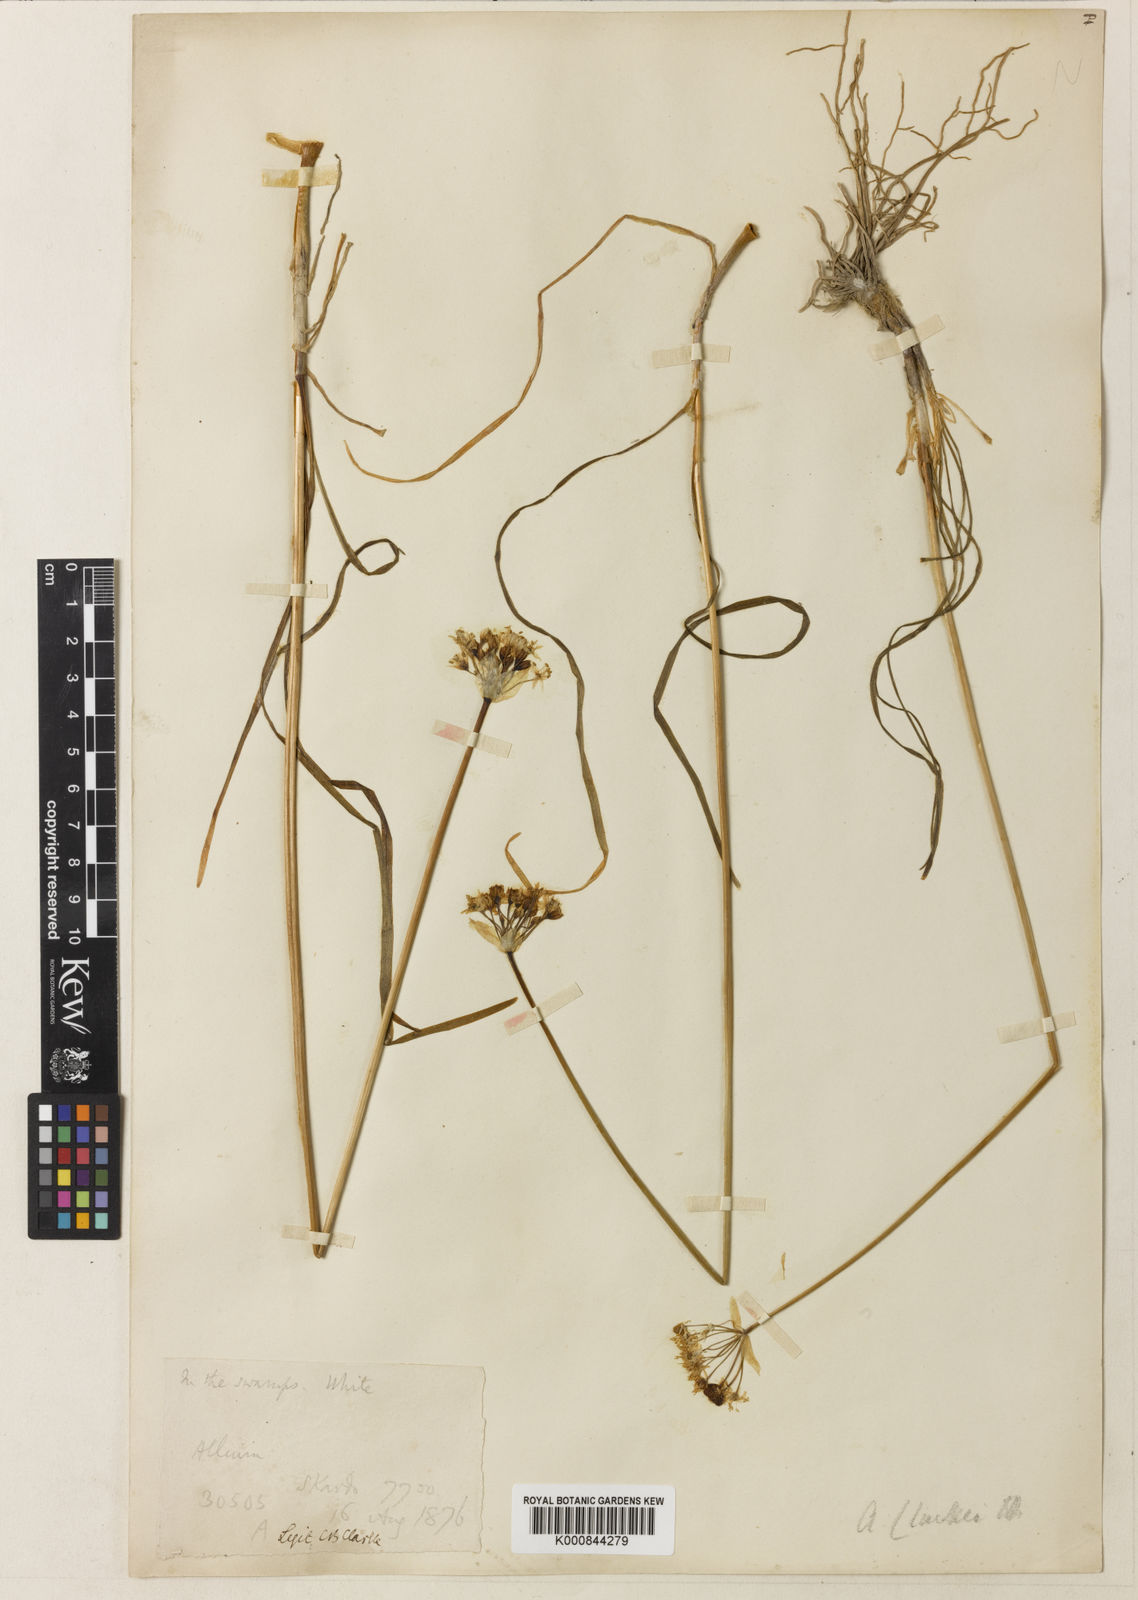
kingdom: Plantae
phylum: Tracheophyta
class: Liliopsida
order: Asparagales
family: Amaryllidaceae
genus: Allium
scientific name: Allium tuberosum
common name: Chinese chives
